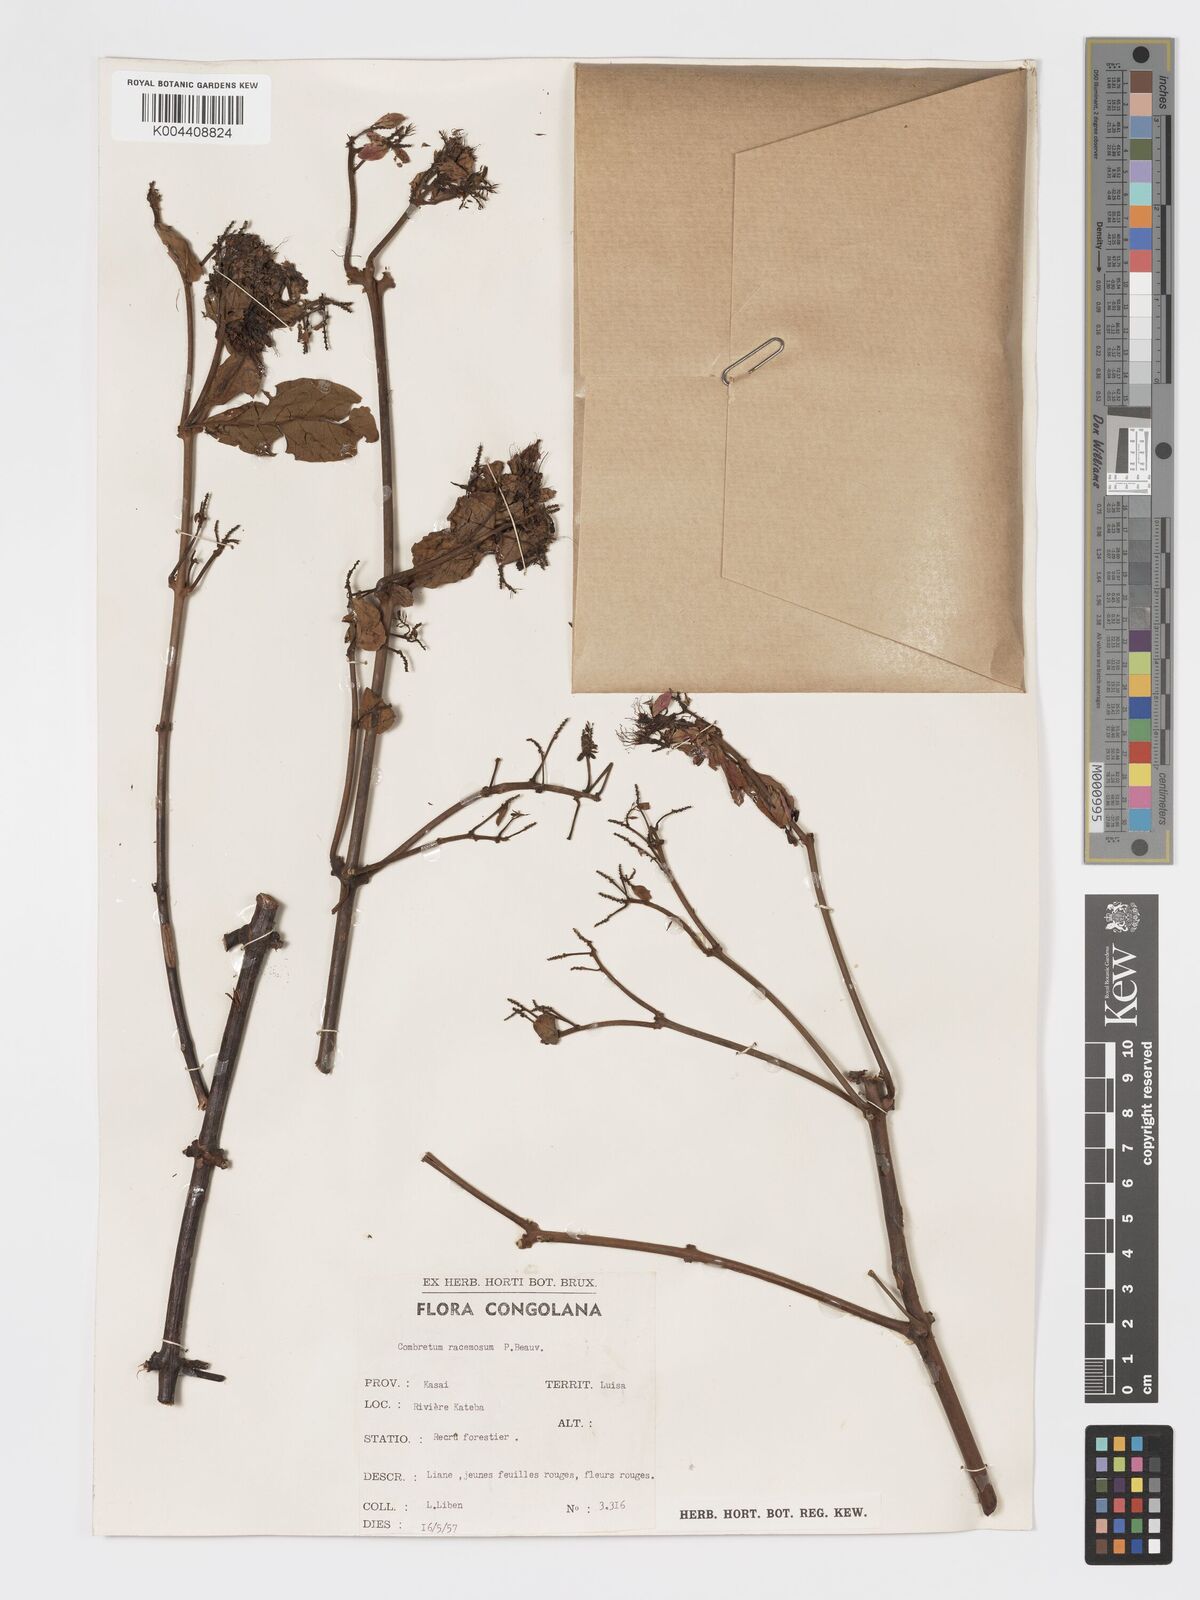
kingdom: Plantae
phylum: Tracheophyta
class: Magnoliopsida
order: Myrtales
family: Combretaceae
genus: Combretum
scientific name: Combretum racemosum
